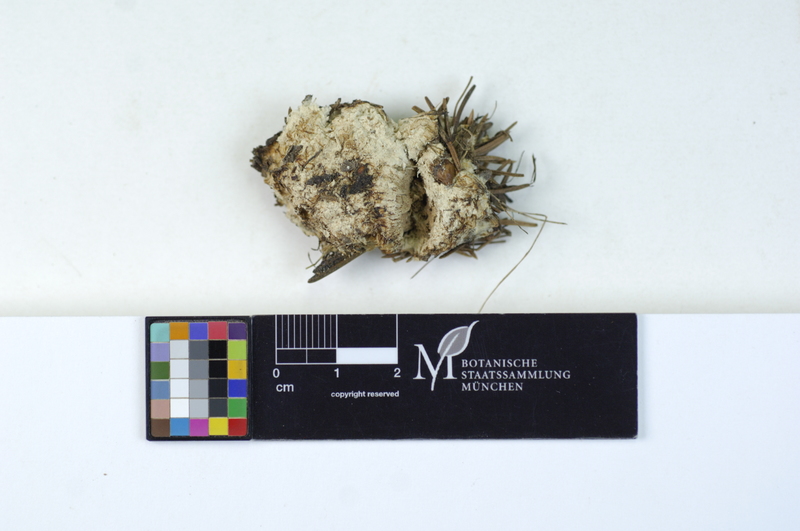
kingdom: Plantae
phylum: Tracheophyta
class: Pinopsida
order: Pinales
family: Pinaceae
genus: Picea
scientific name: Picea
